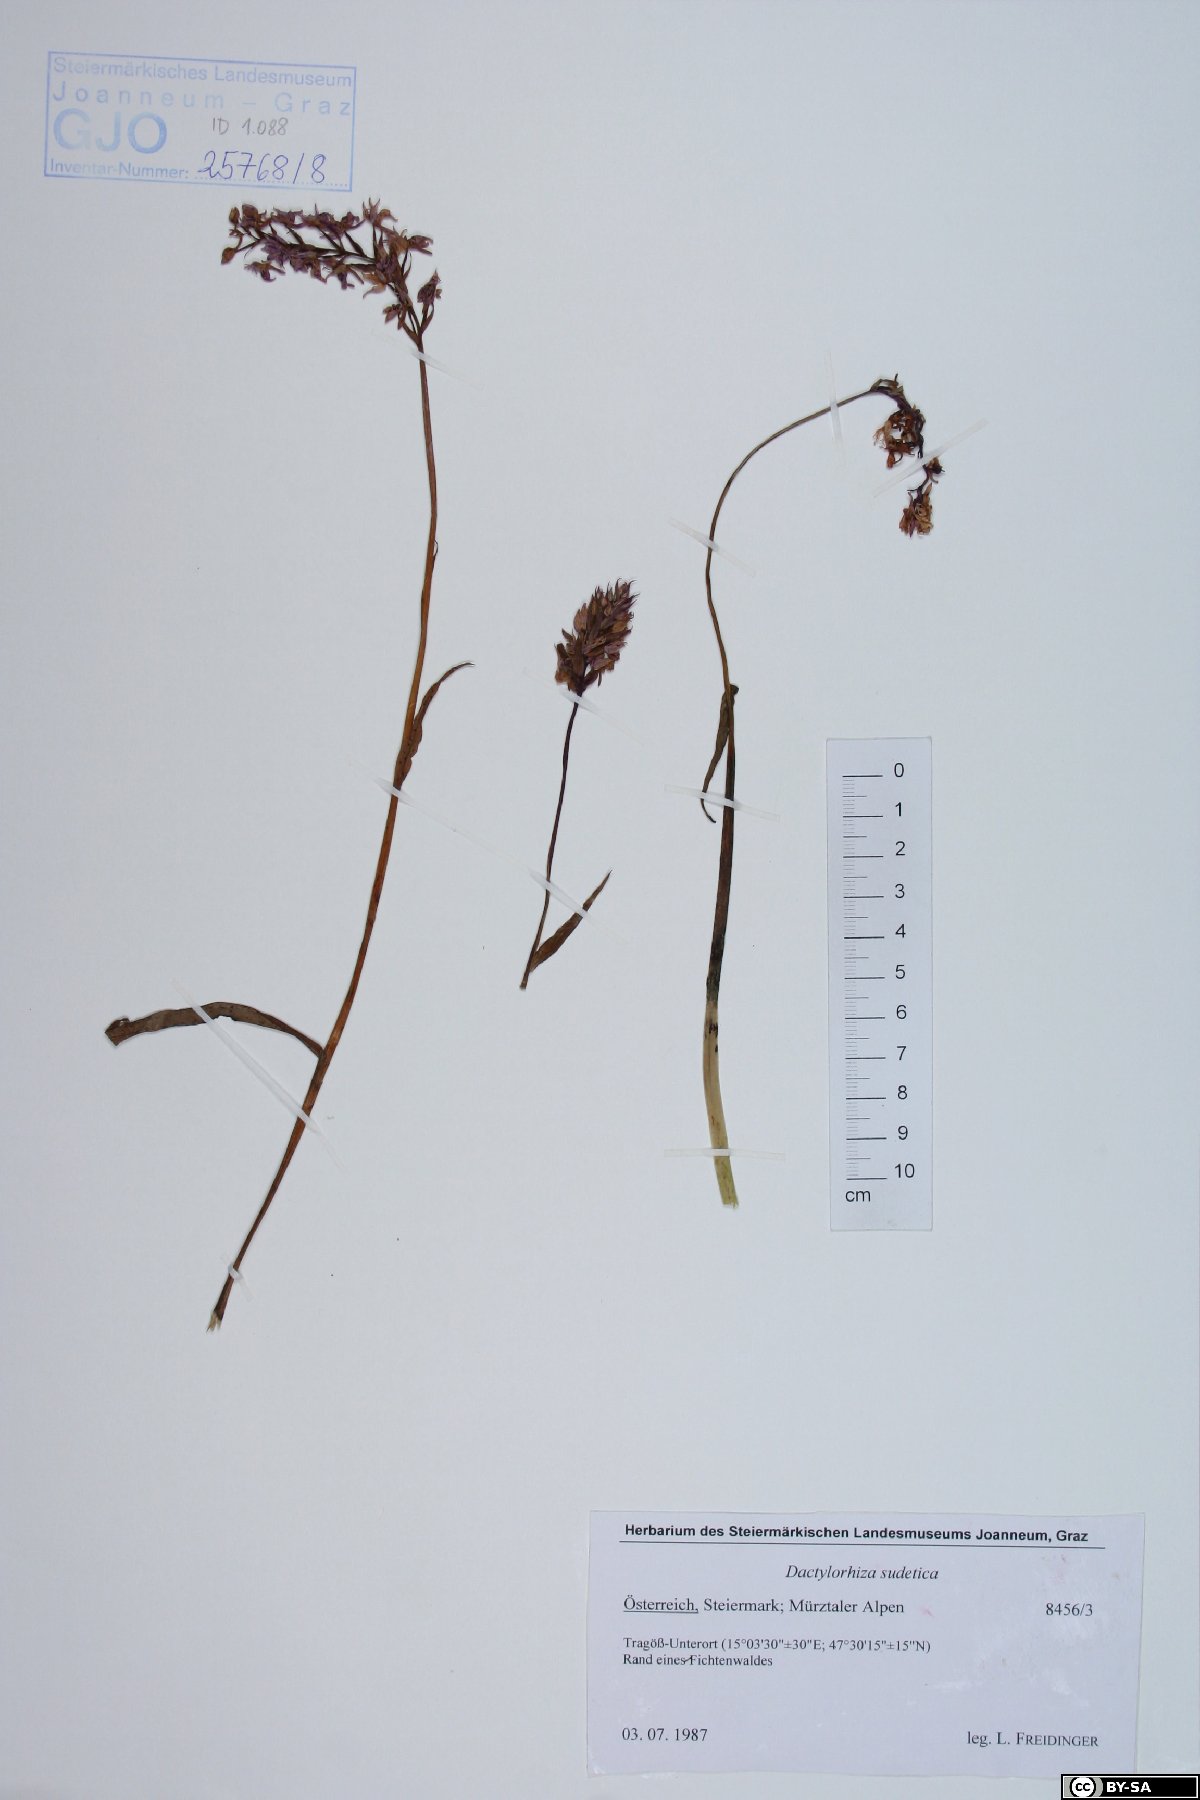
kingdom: Plantae
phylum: Tracheophyta
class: Liliopsida
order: Asparagales
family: Orchidaceae
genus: Dactylorhiza
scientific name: Dactylorhiza maculata
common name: Heath spotted-orchid
